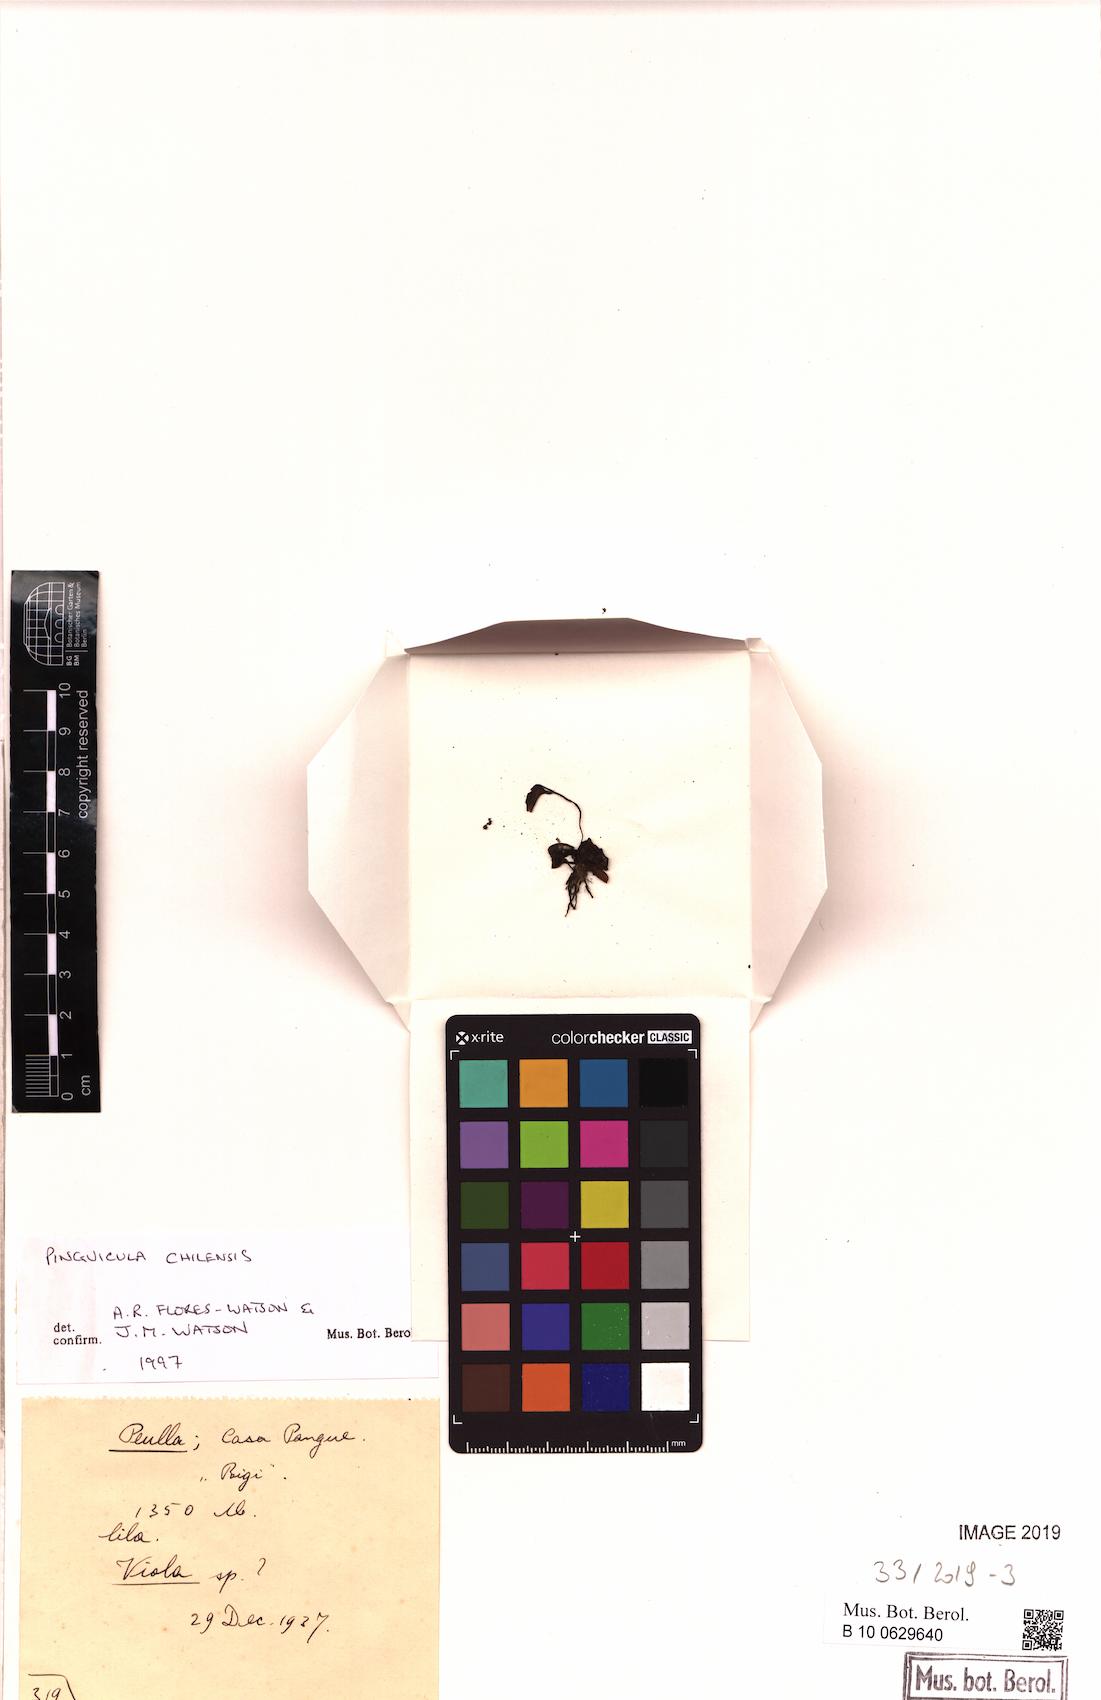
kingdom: Plantae
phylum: Tracheophyta
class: Magnoliopsida
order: Lamiales
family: Lentibulariaceae
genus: Pinguicula
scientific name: Pinguicula chilensis
